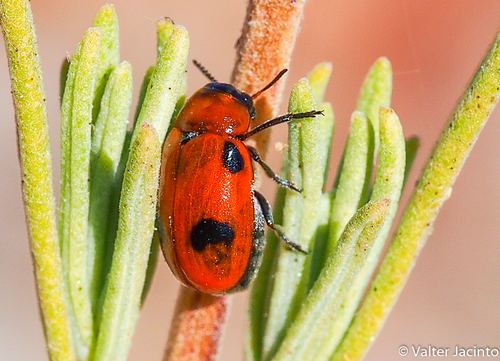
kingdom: Animalia
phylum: Arthropoda
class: Insecta
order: Coleoptera
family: Chrysomelidae
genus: Coptocephala
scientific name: Coptocephala
